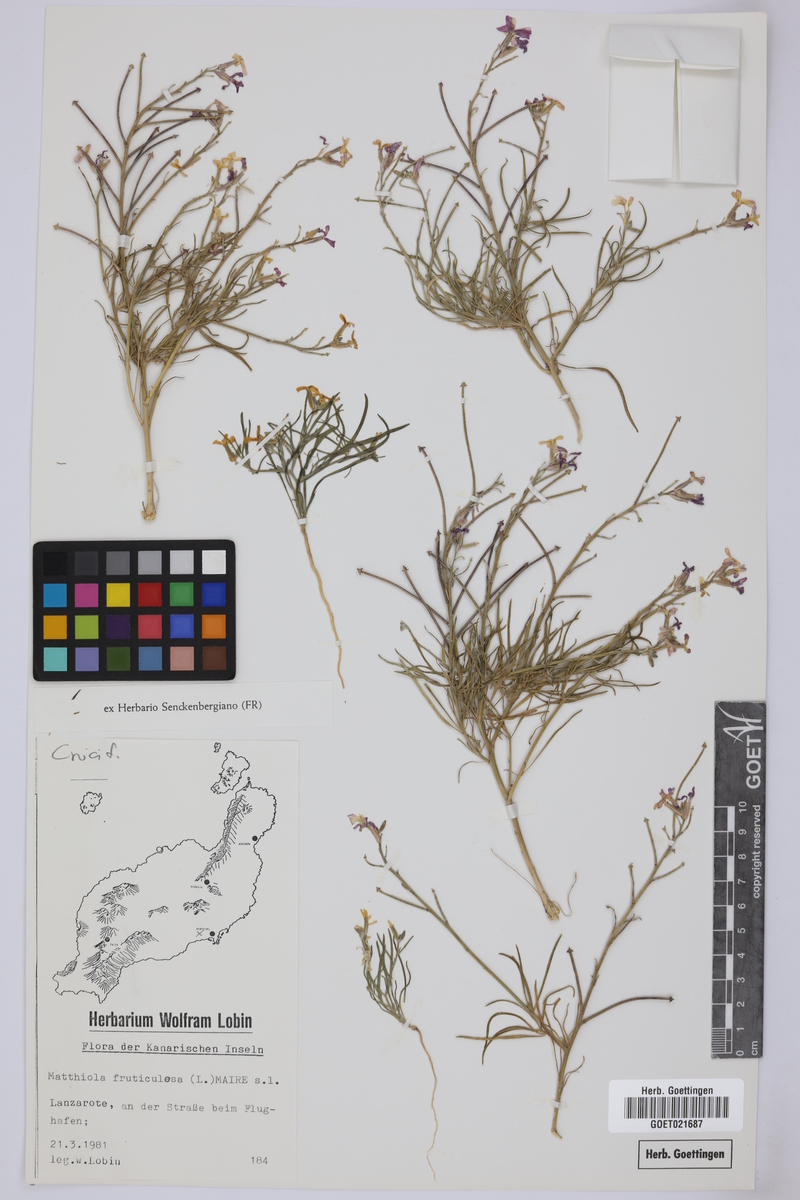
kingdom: Plantae
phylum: Tracheophyta
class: Magnoliopsida
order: Brassicales
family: Brassicaceae
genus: Matthiola
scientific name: Matthiola fruticulosa
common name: Sad stock
